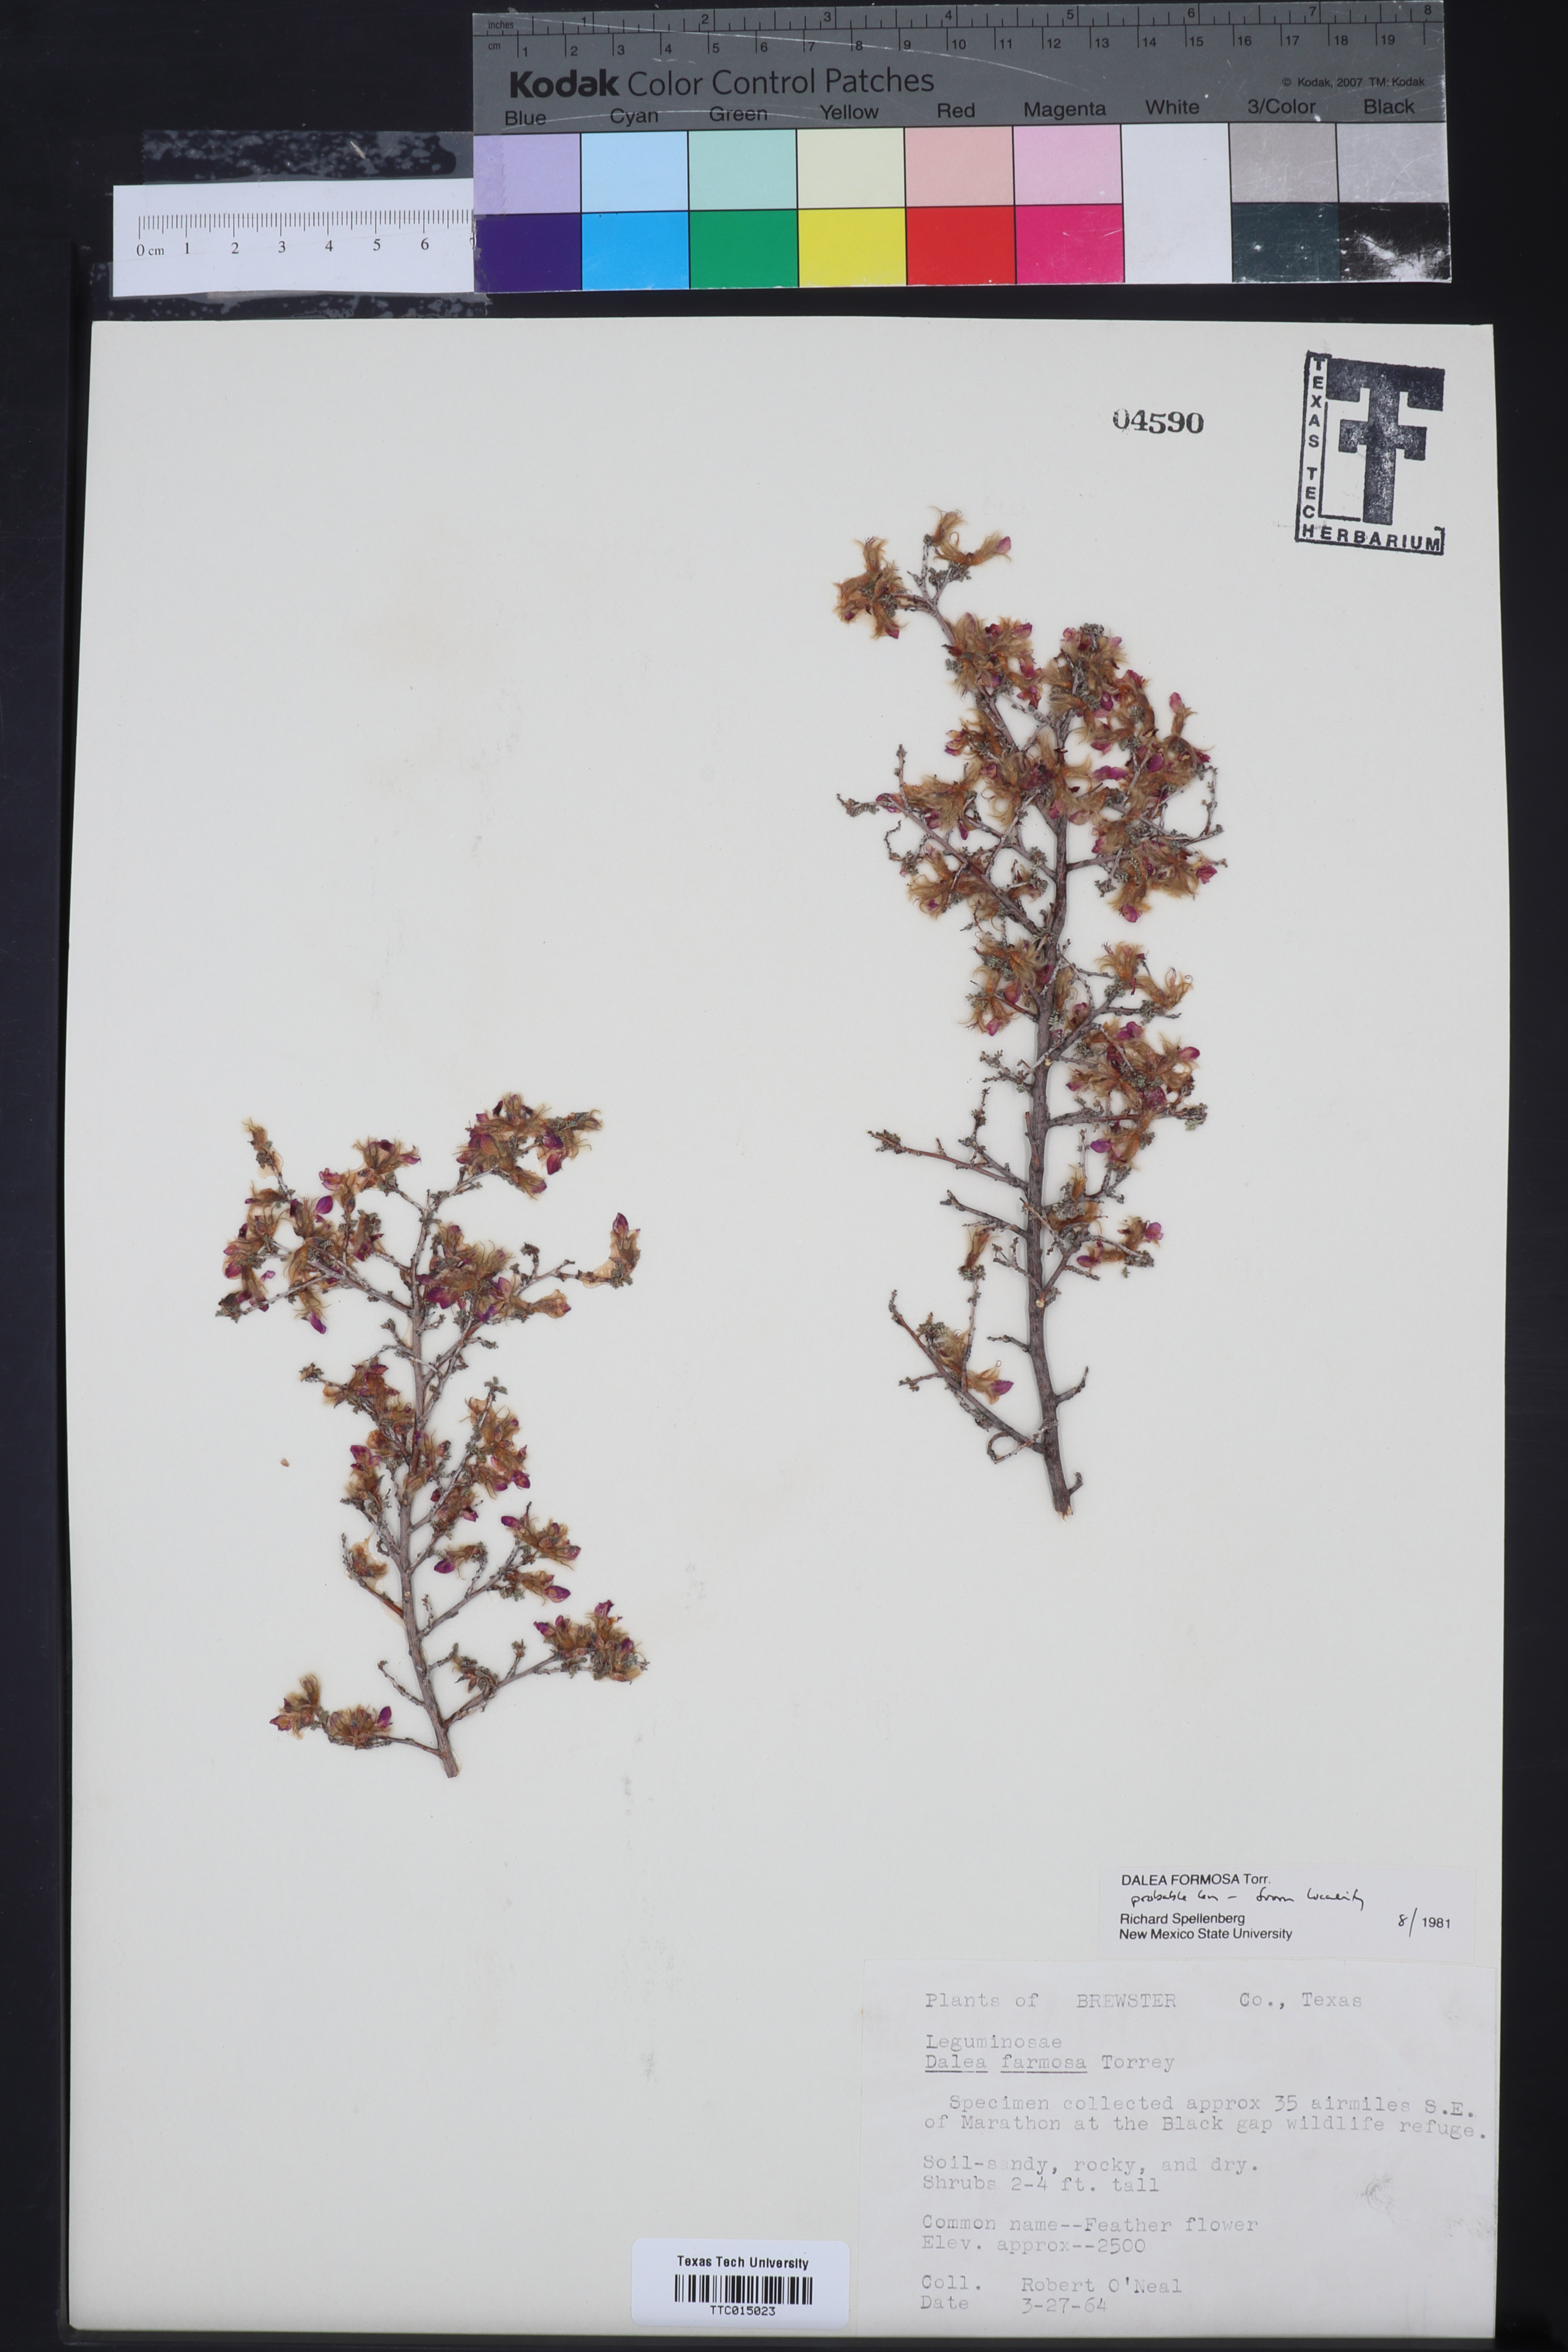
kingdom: Plantae
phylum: Tracheophyta
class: Magnoliopsida
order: Fabales
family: Fabaceae
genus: Dalea
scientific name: Dalea formosa
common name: Feather-plume dalea
